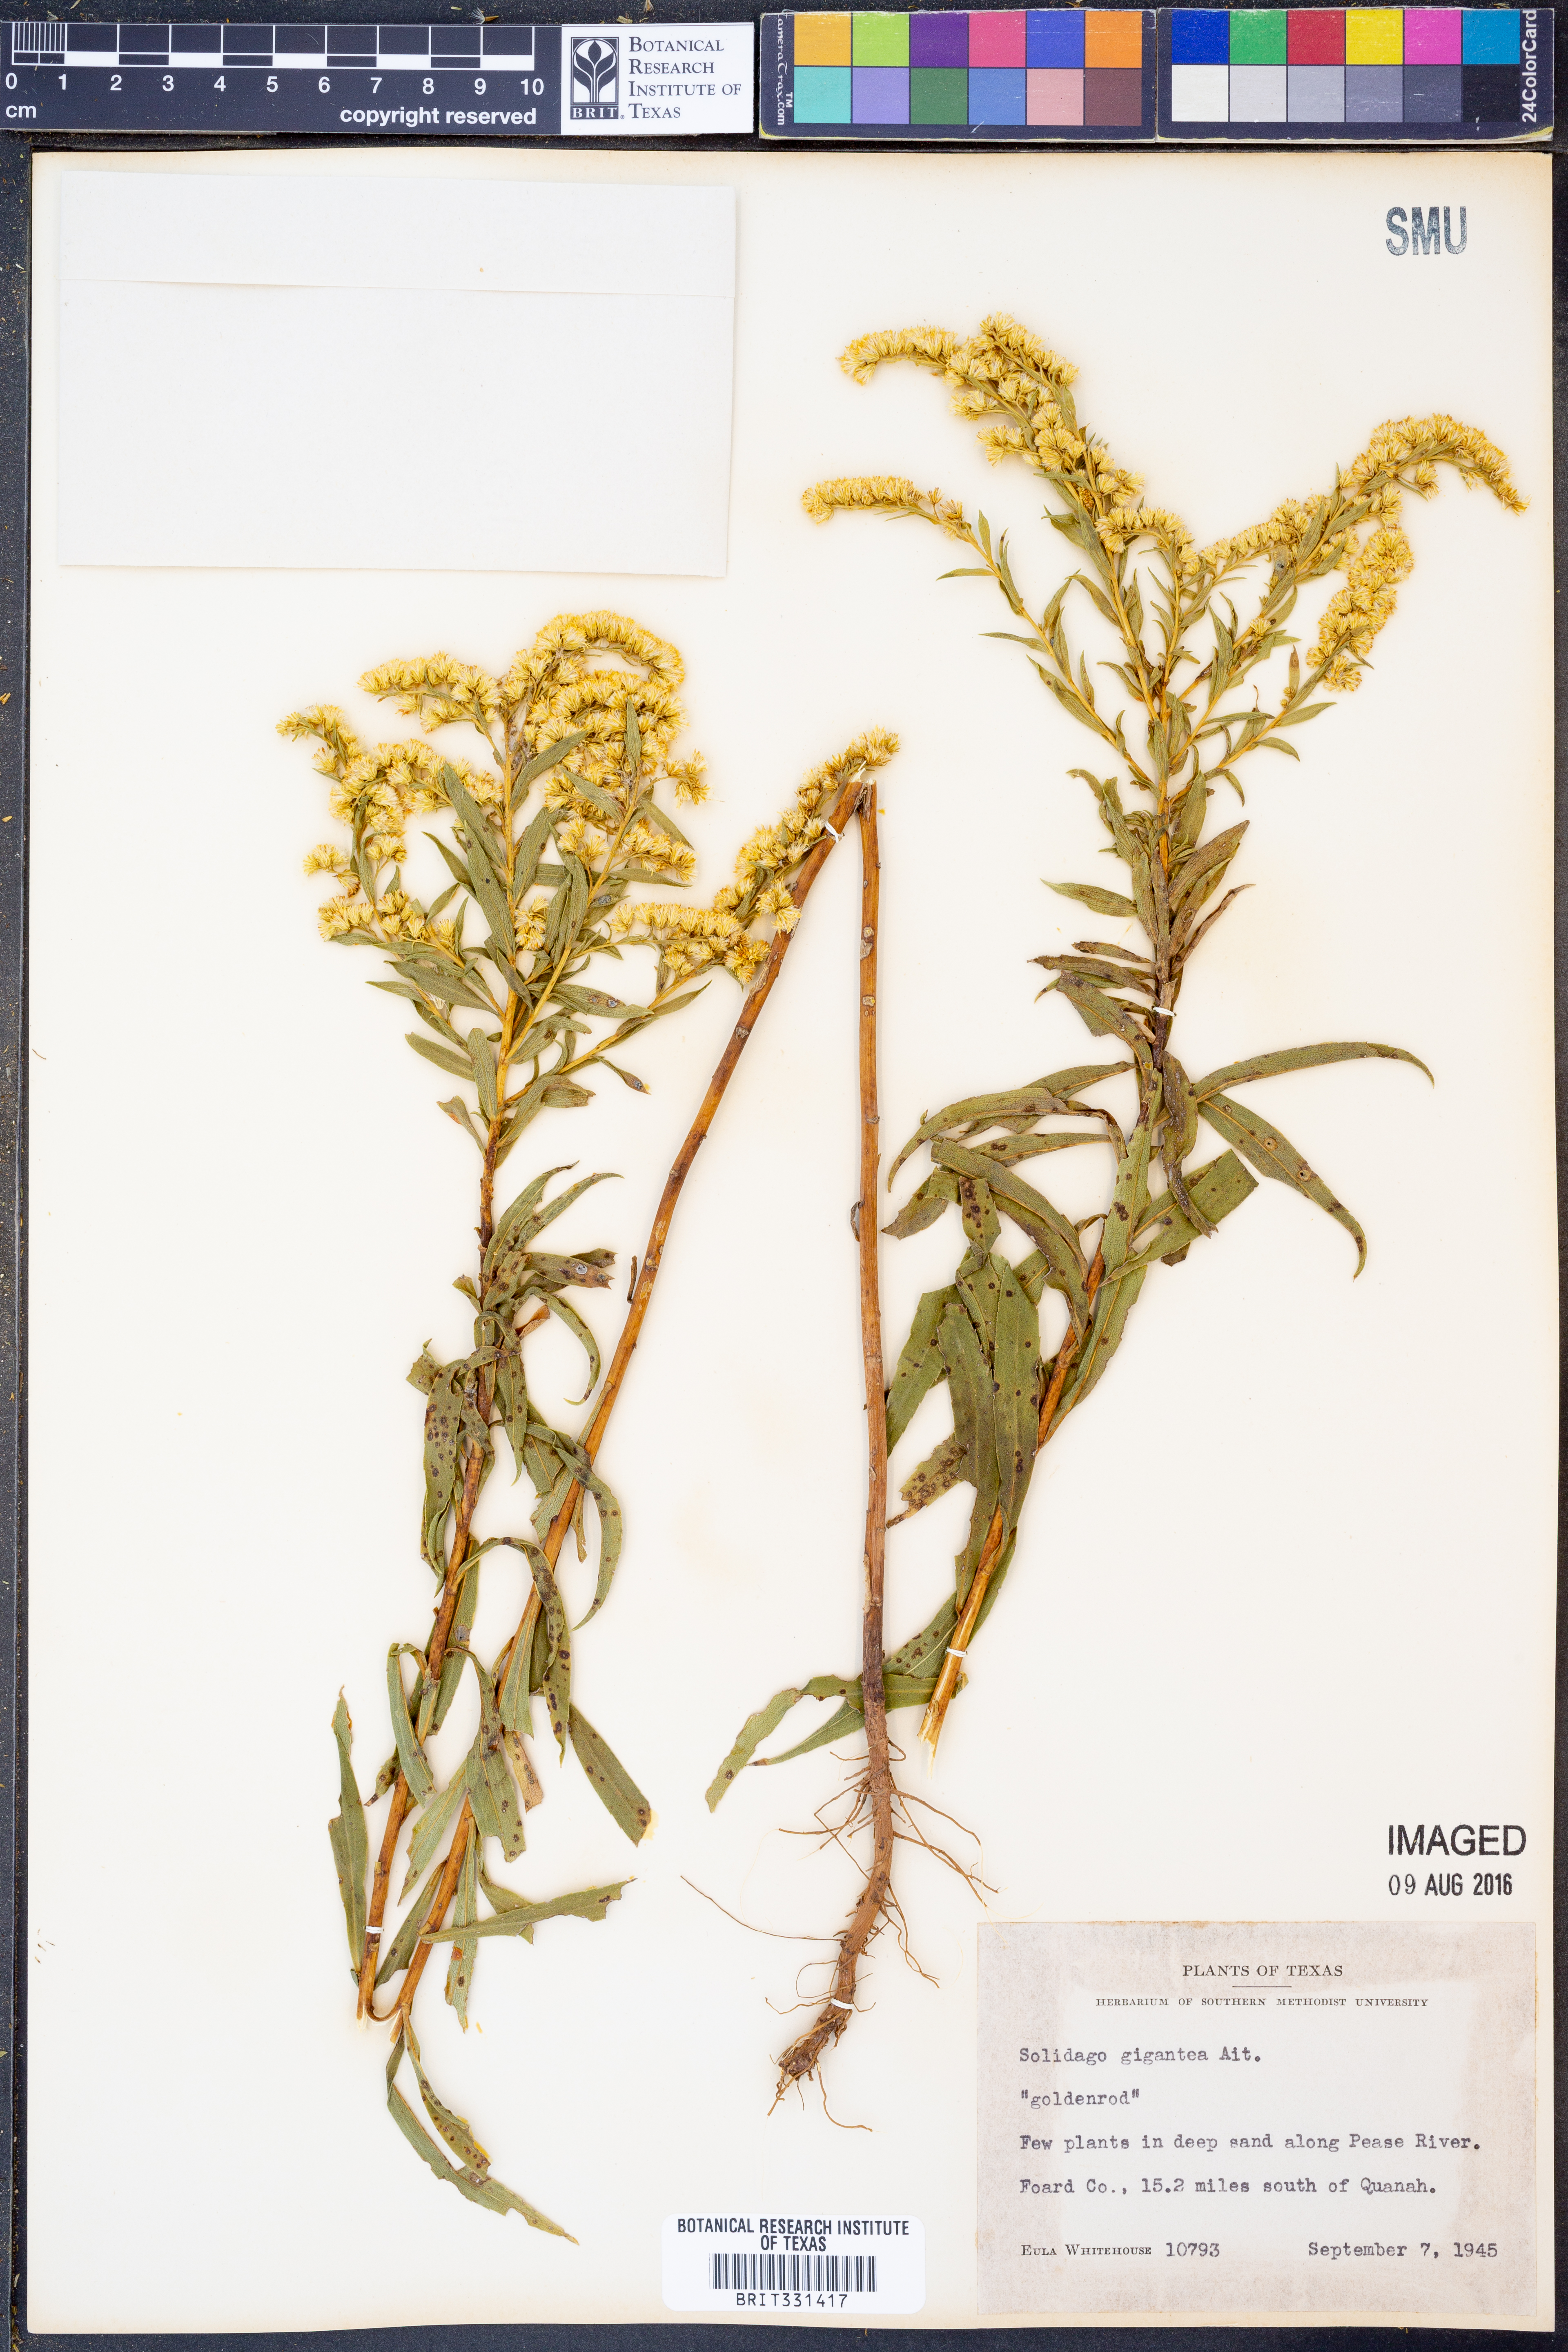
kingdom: Plantae
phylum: Tracheophyta
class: Magnoliopsida
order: Asterales
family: Asteraceae
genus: Solidago
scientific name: Solidago gigantea
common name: Giant goldenrod
